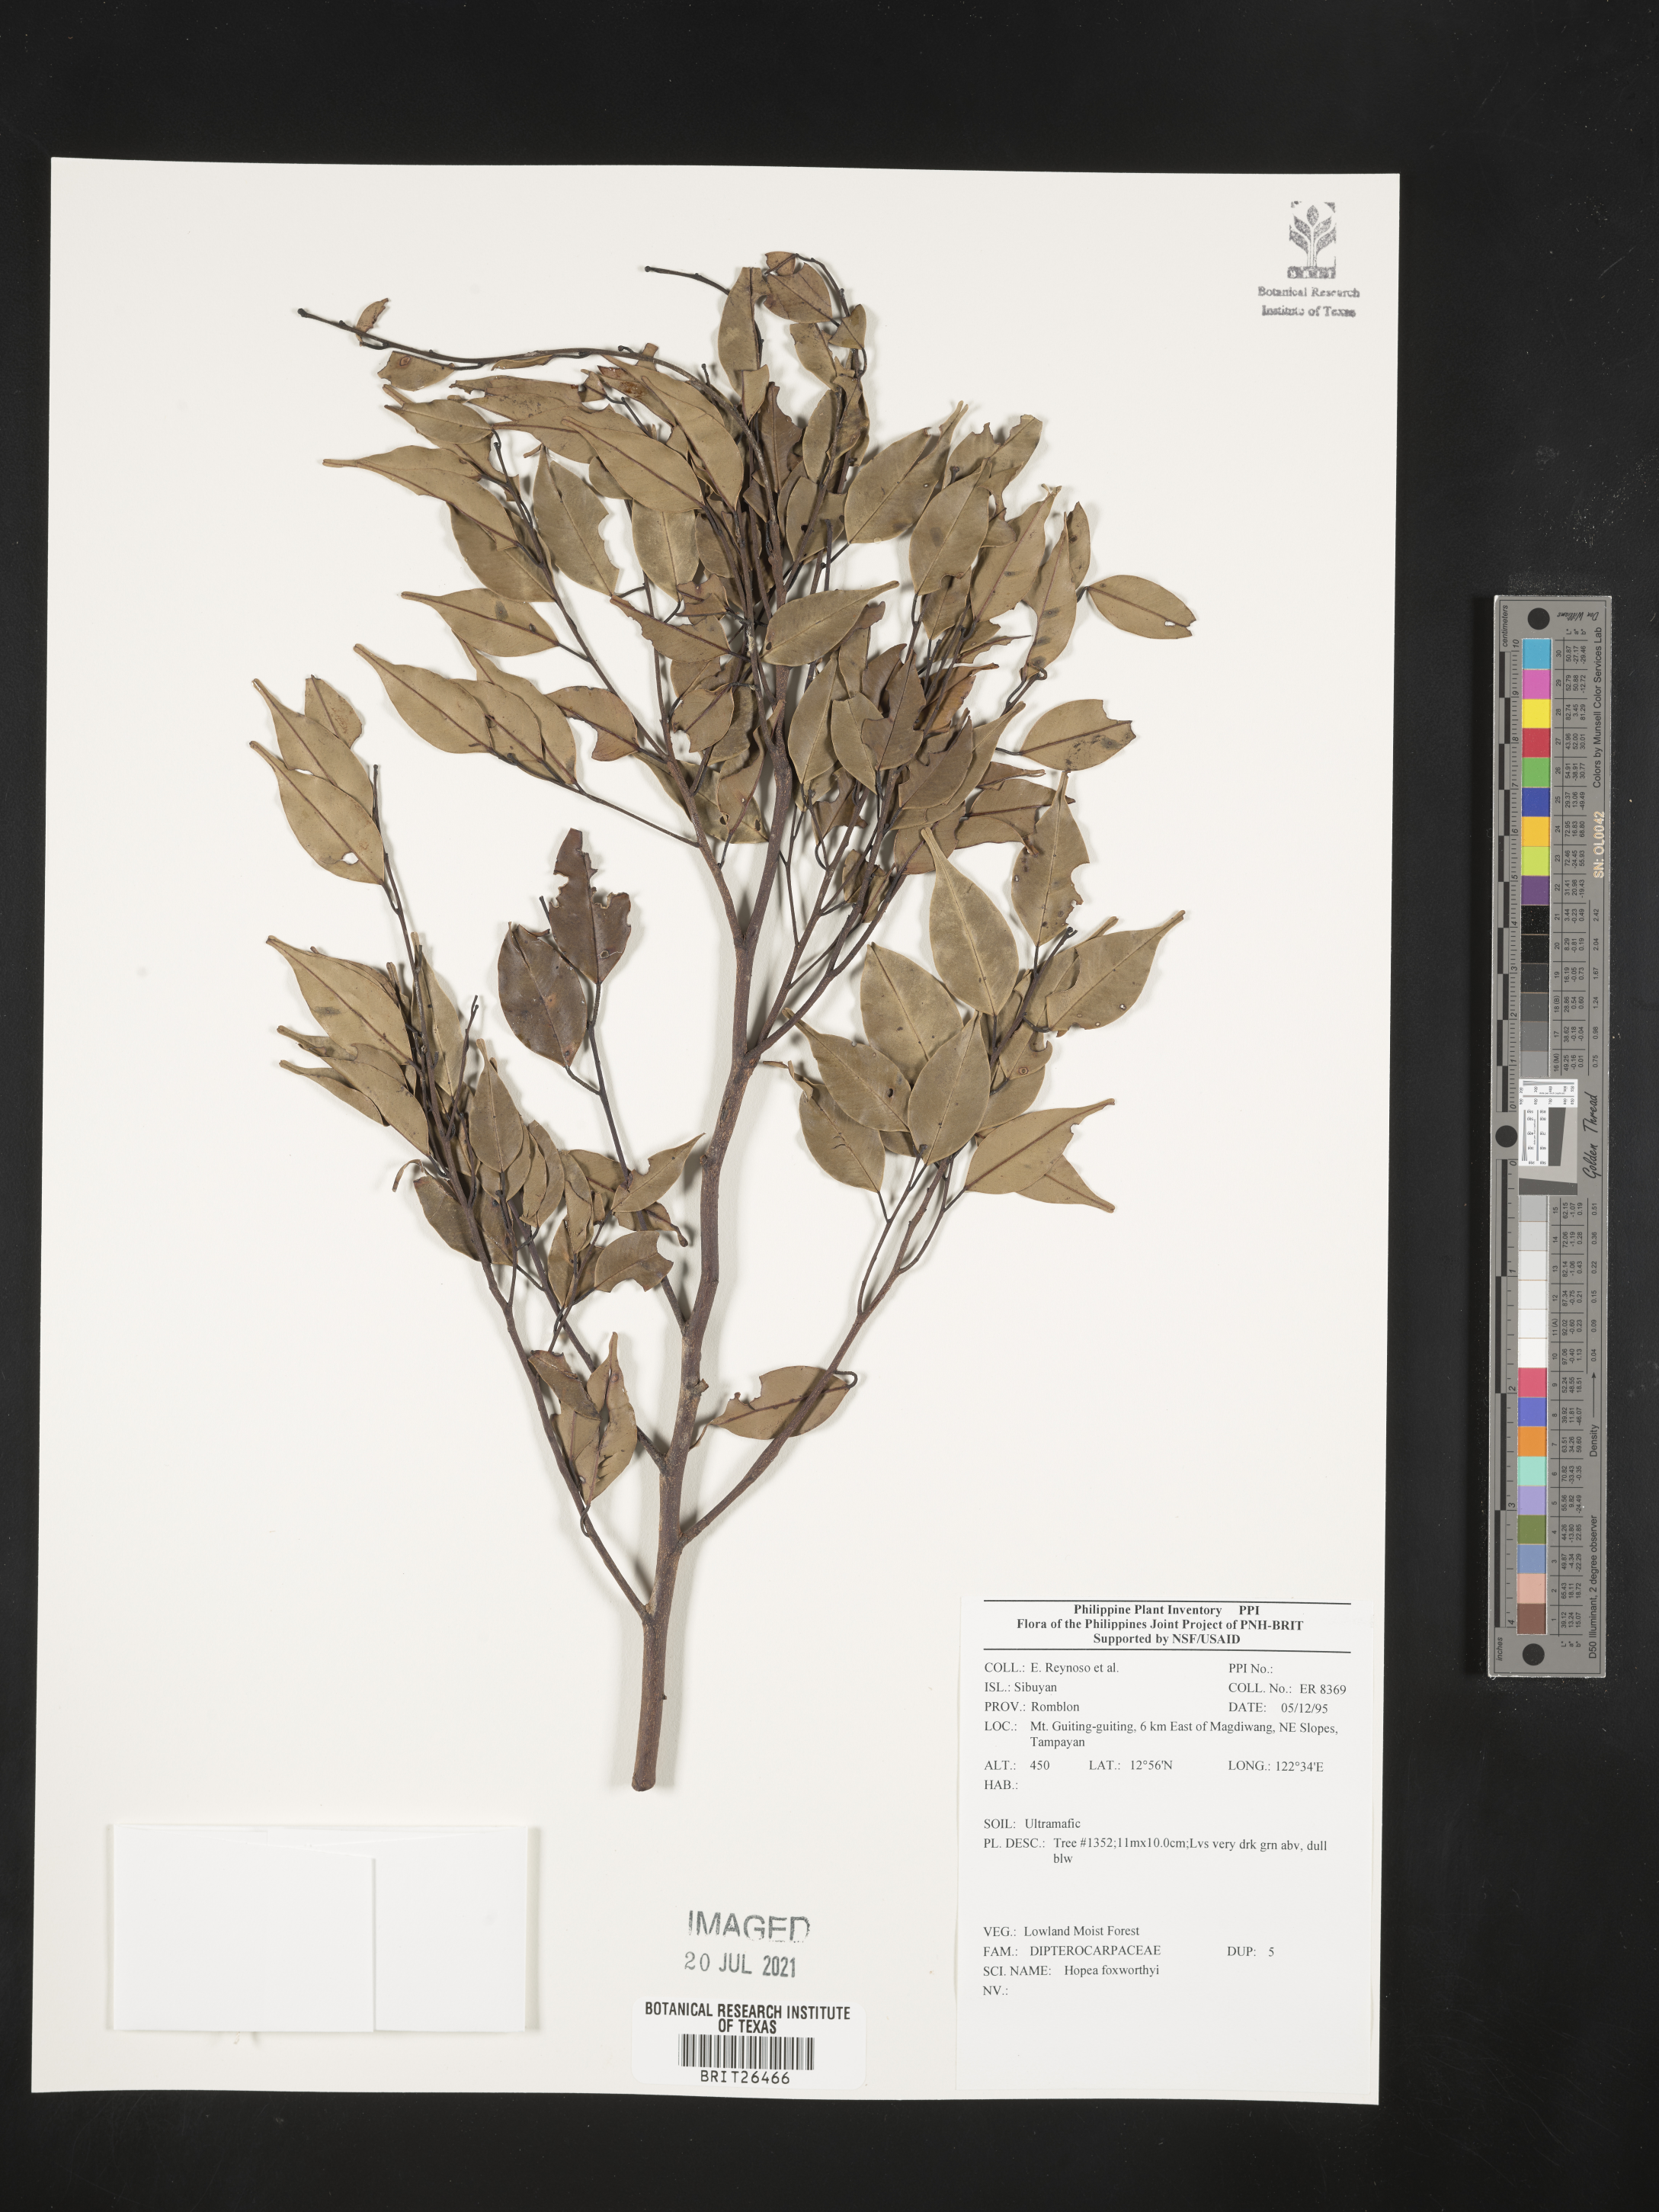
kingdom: Plantae
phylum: Tracheophyta
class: Magnoliopsida
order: Malvales
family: Dipterocarpaceae
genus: Hopea
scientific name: Hopea foxworthyi
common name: Dalingdingan
